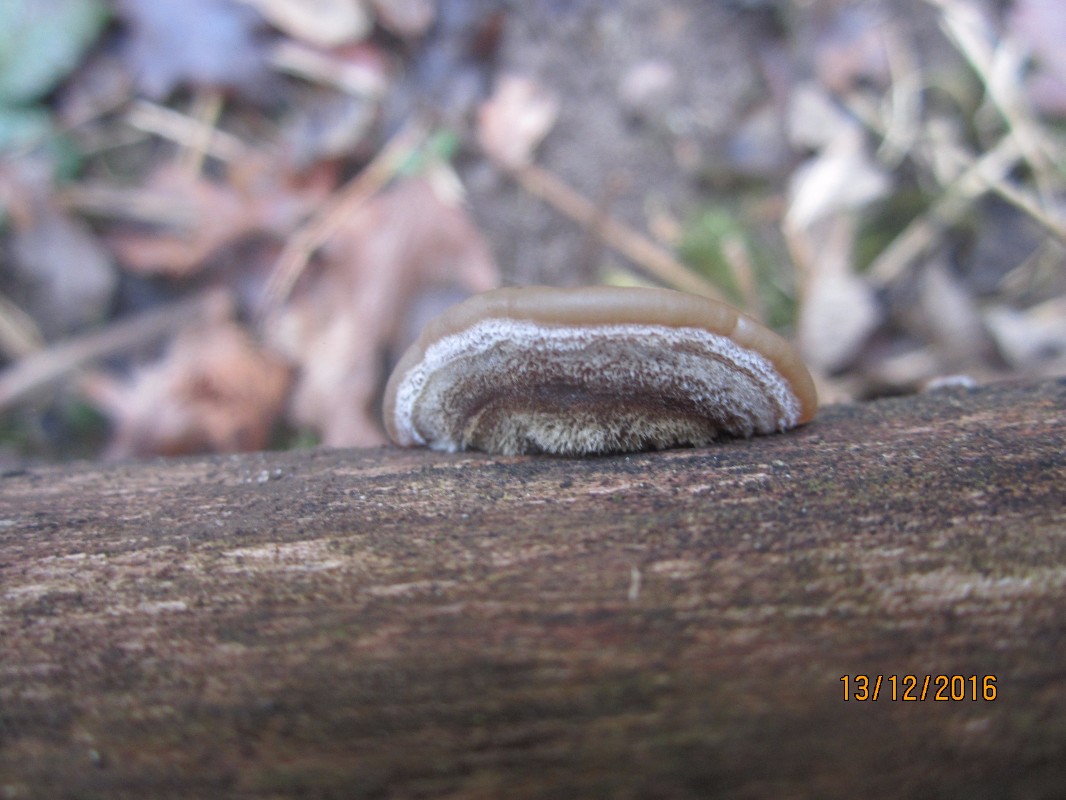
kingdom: Fungi
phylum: Basidiomycota
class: Agaricomycetes
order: Auriculariales
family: Auriculariaceae
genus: Auricularia
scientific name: Auricularia mesenterica
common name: håret judasøre
